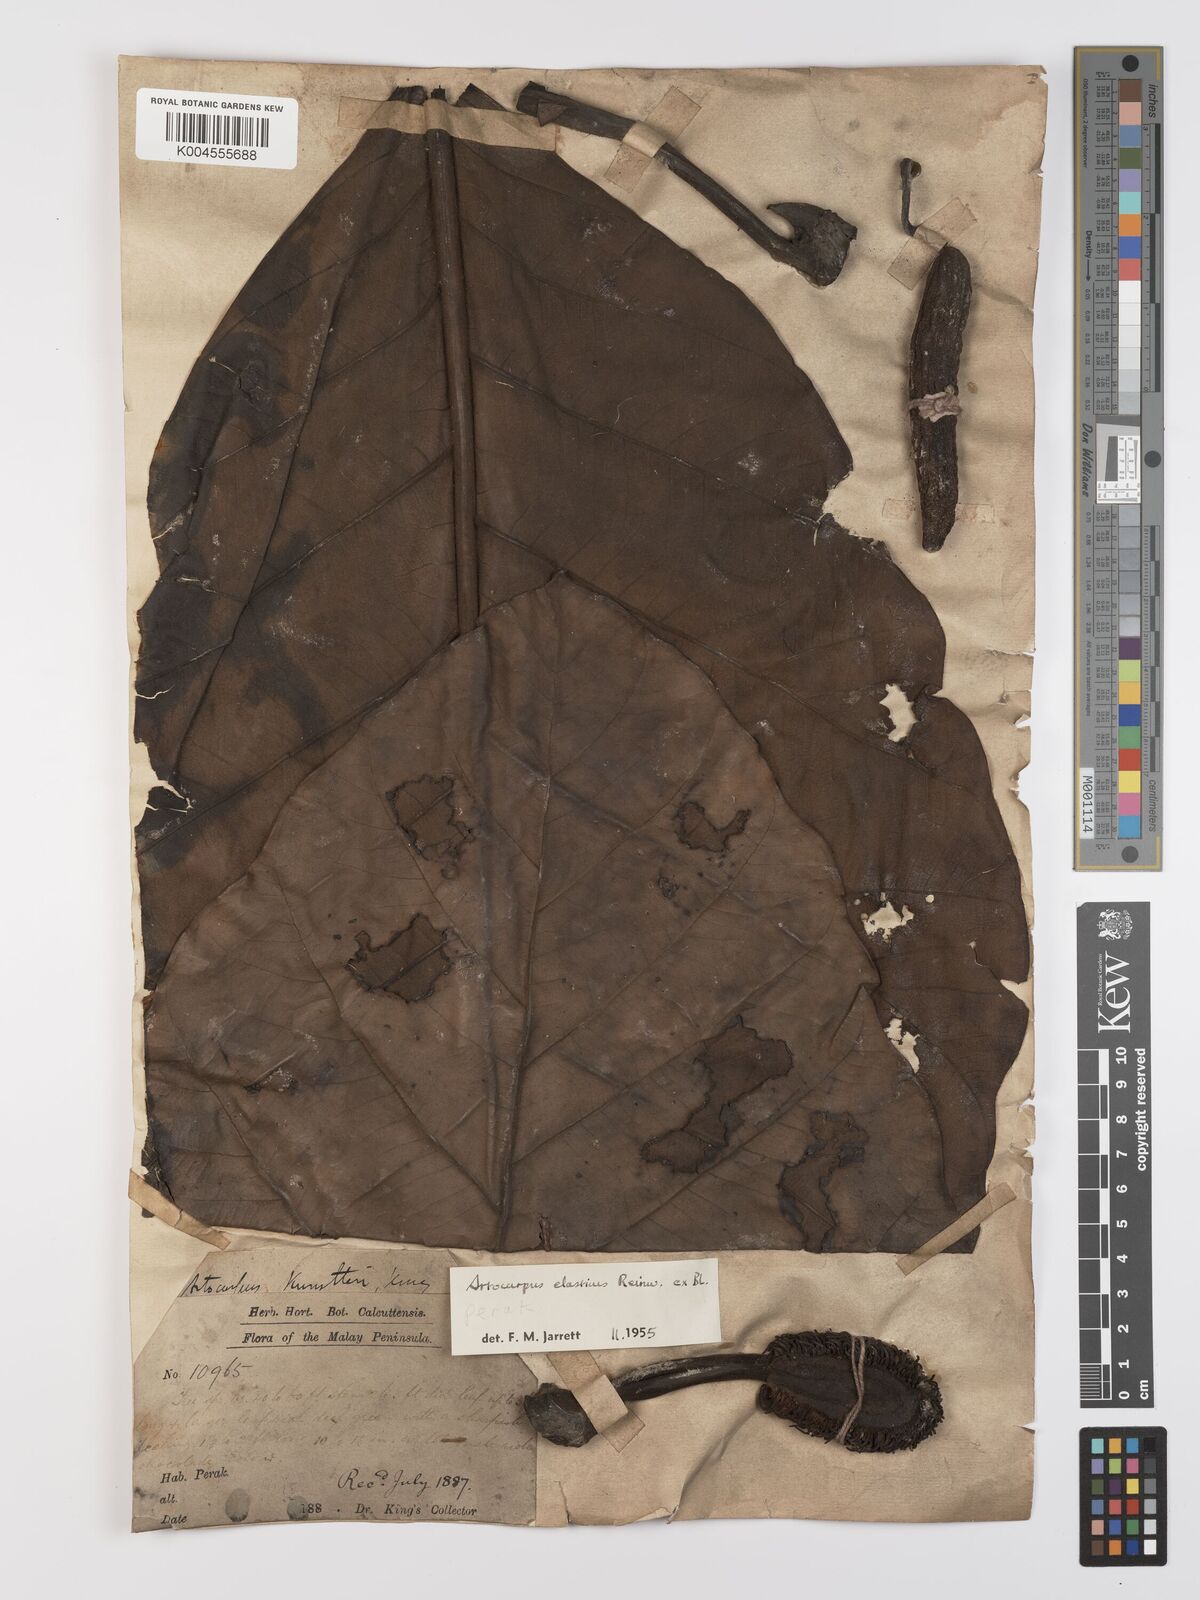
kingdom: Plantae
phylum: Tracheophyta
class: Magnoliopsida
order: Rosales
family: Moraceae
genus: Artocarpus
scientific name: Artocarpus elasticus
